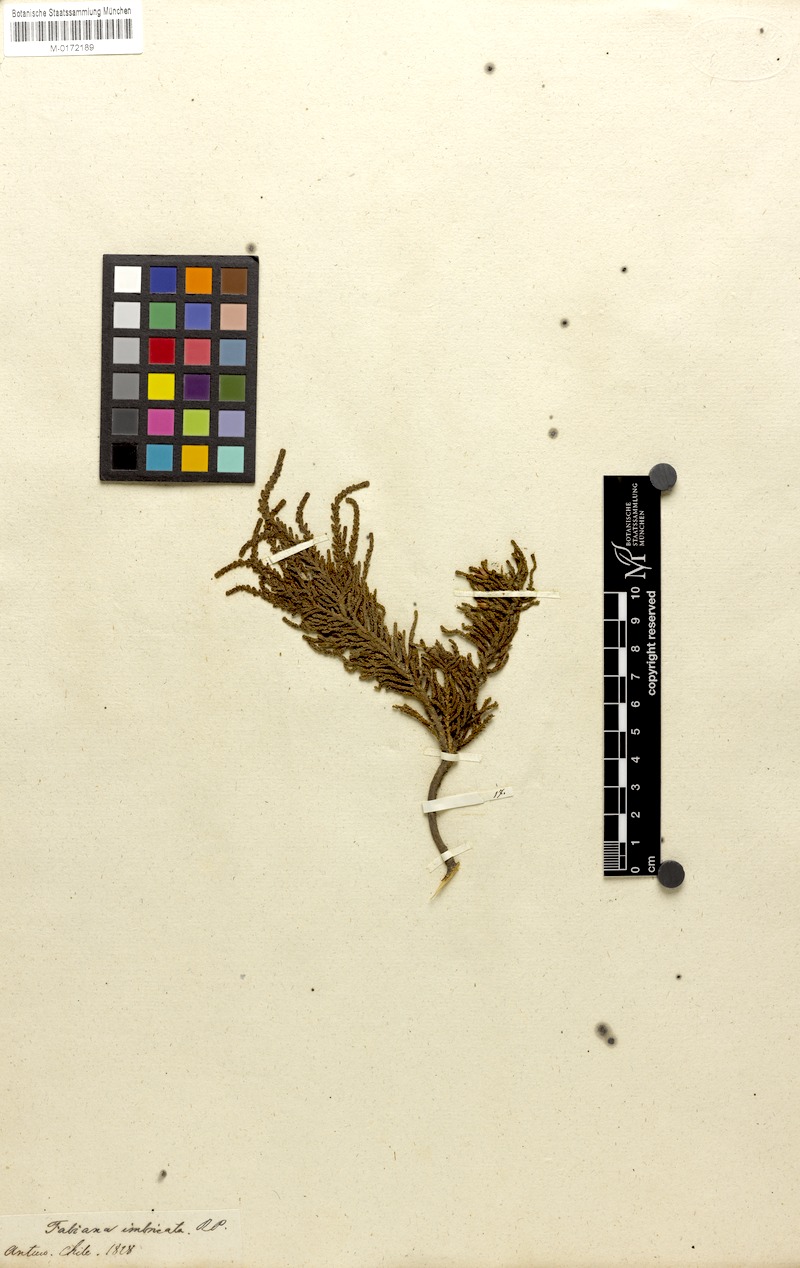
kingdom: Plantae
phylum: Tracheophyta
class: Magnoliopsida
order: Solanales
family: Solanaceae
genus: Fabiana
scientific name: Fabiana imbricata
